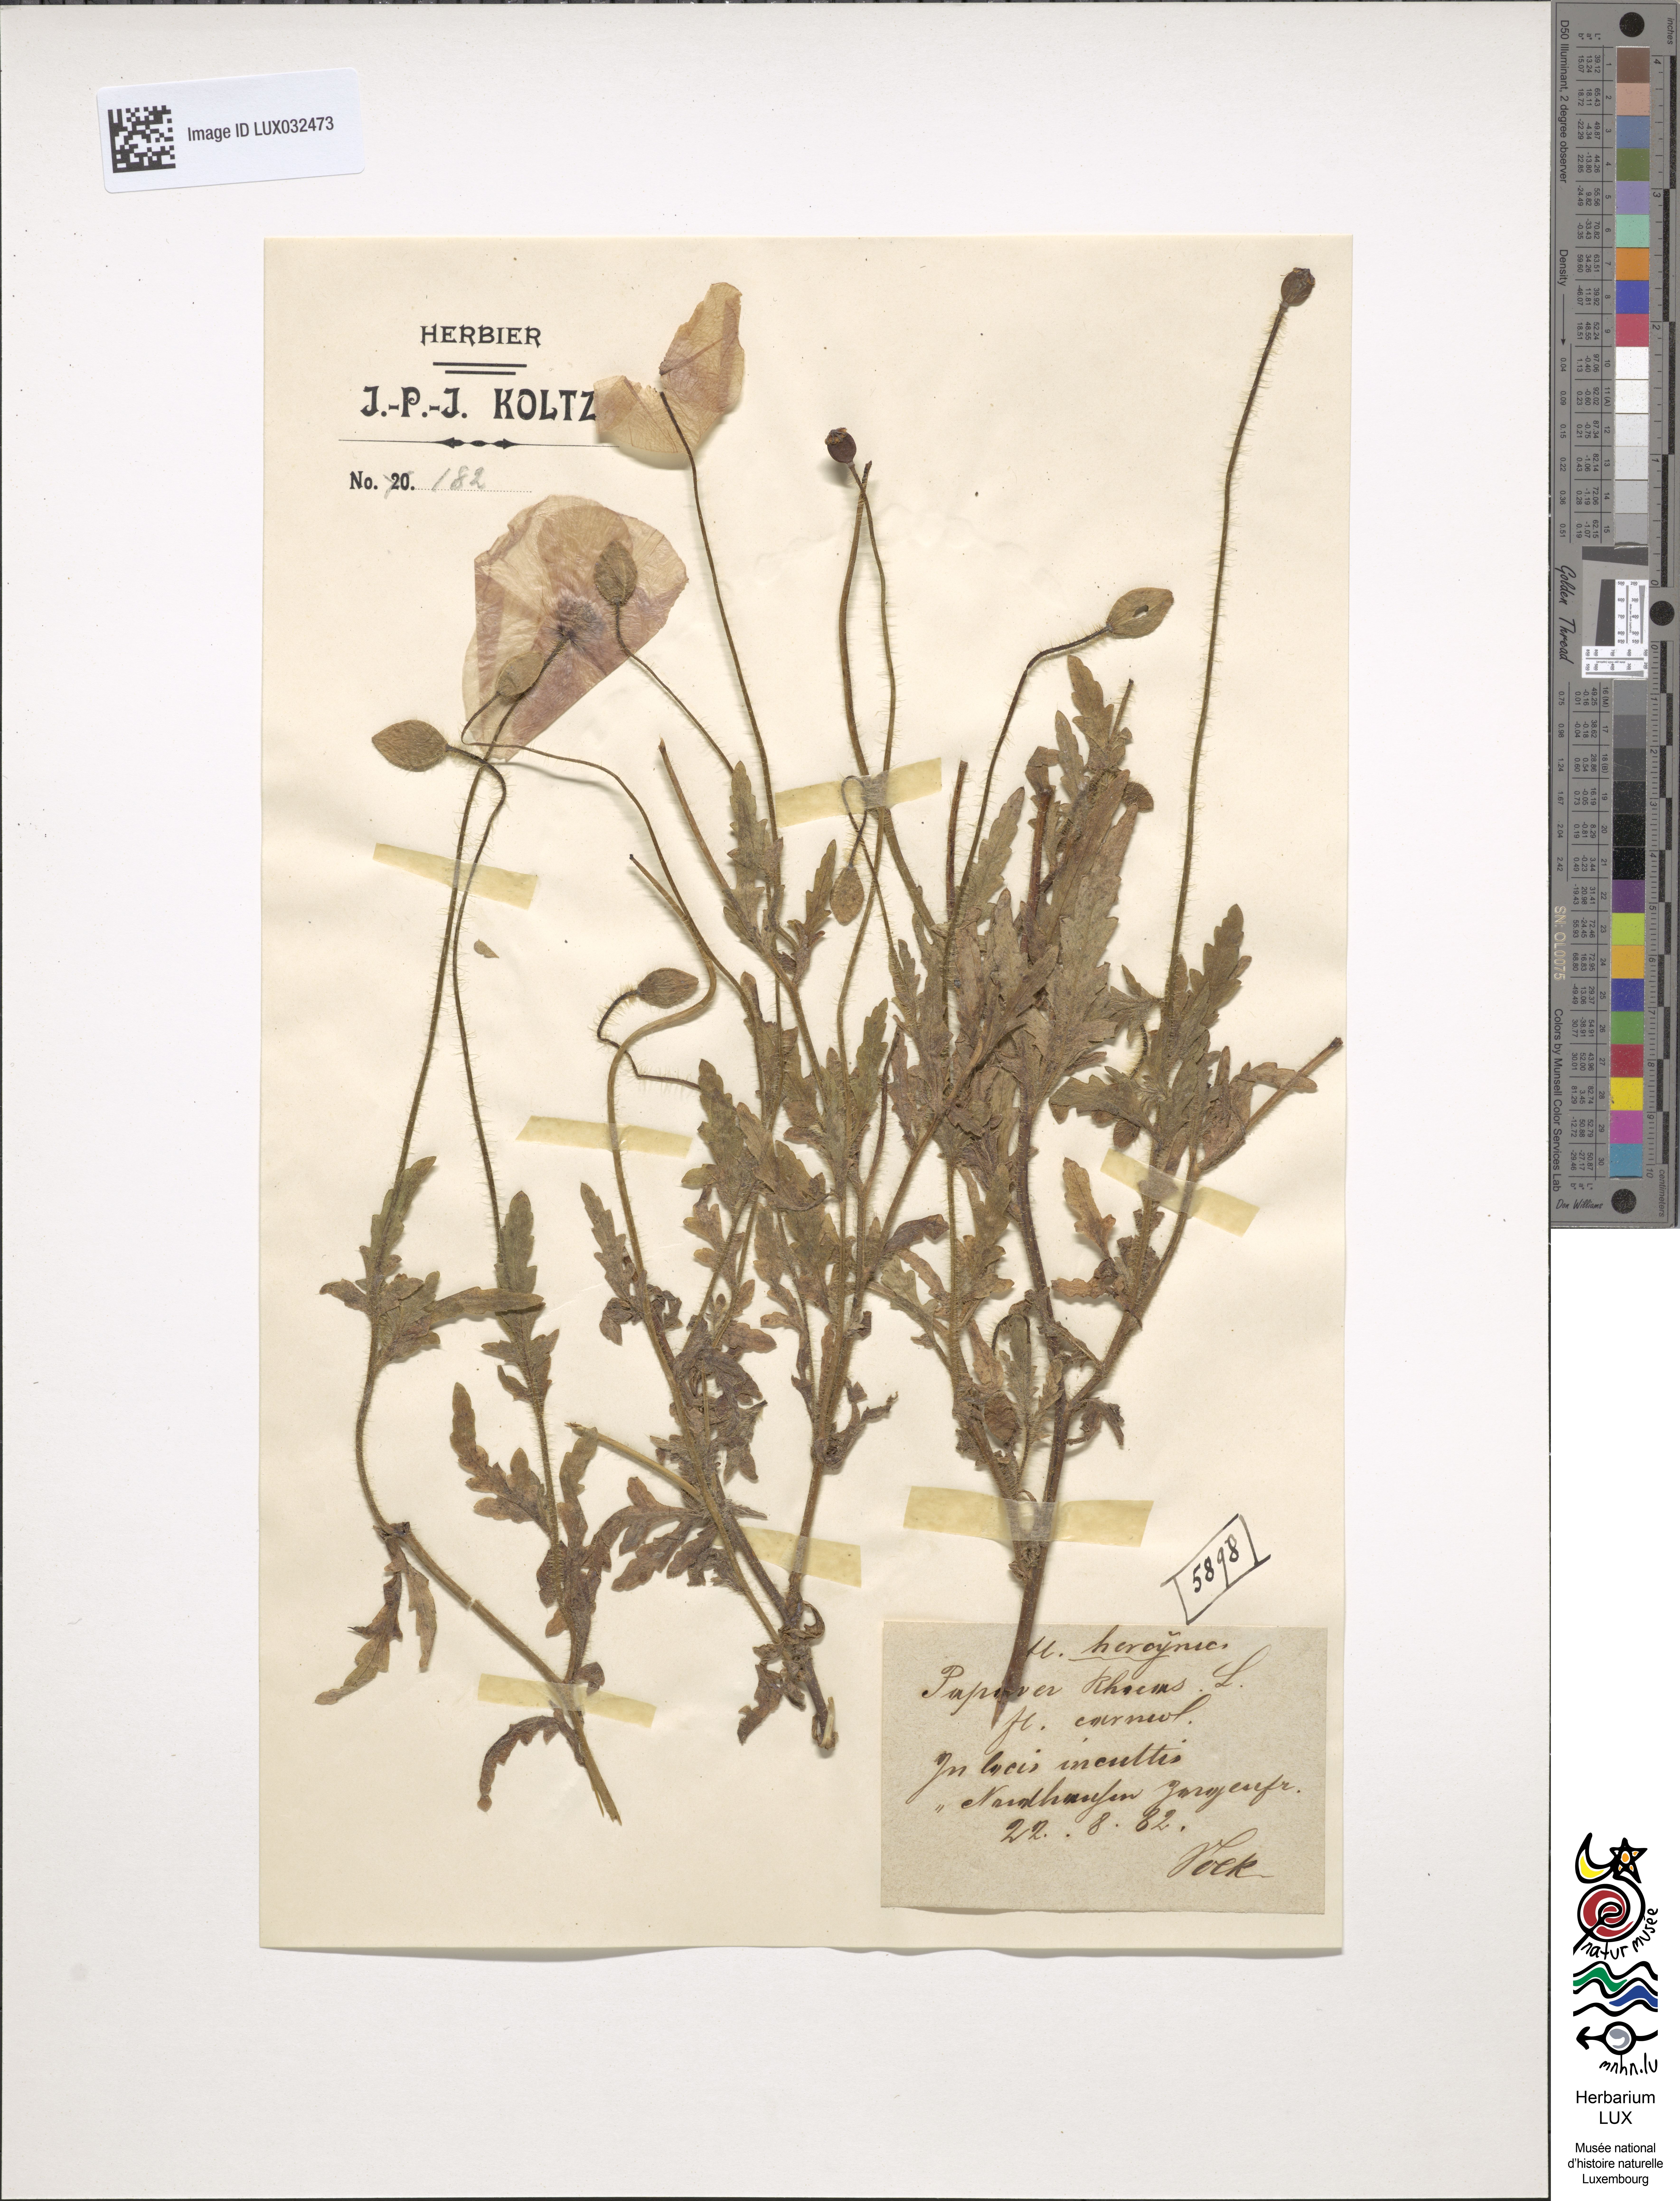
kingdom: Plantae
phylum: Tracheophyta
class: Magnoliopsida
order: Ranunculales
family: Papaveraceae
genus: Papaver
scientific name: Papaver rhoeas
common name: Corn poppy
